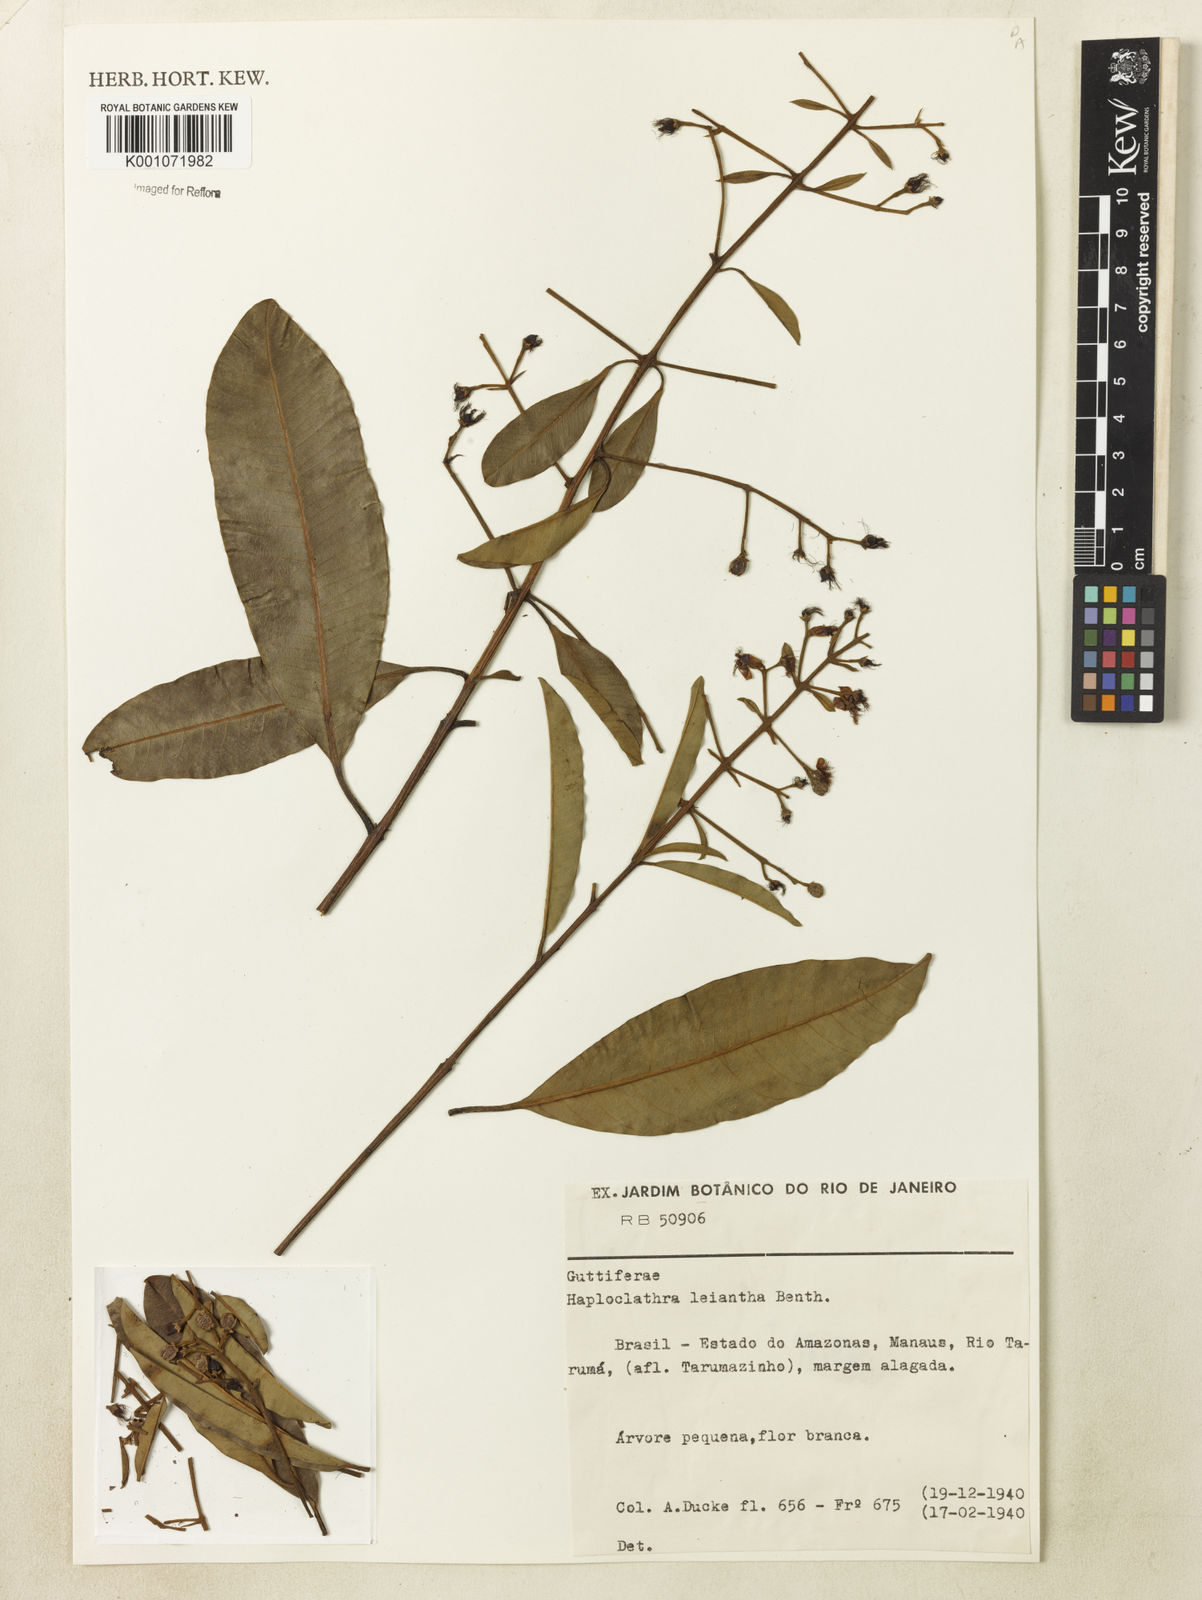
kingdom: Plantae
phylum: Tracheophyta
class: Magnoliopsida
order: Malpighiales
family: Calophyllaceae
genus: Haploclathra
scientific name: Haploclathra leiantha
